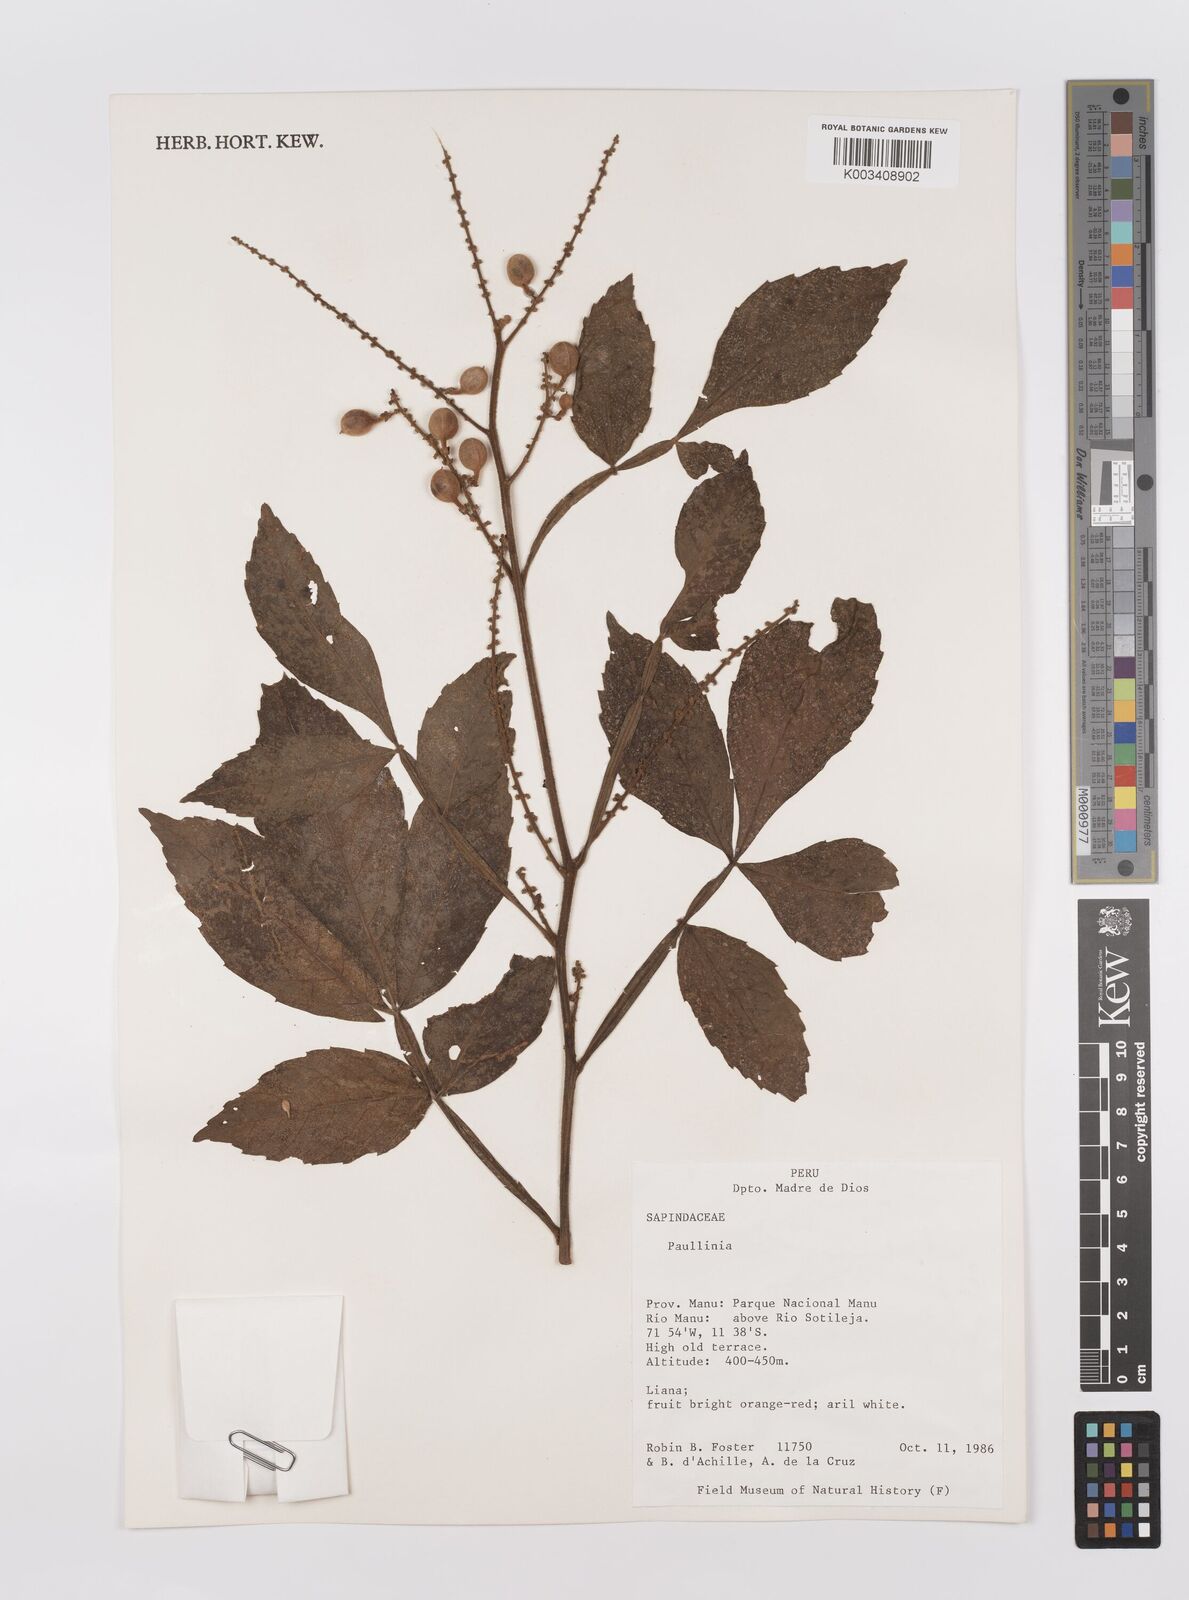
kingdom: Plantae
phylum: Tracheophyta
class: Magnoliopsida
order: Sapindales
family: Sapindaceae
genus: Paullinia
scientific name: Paullinia
